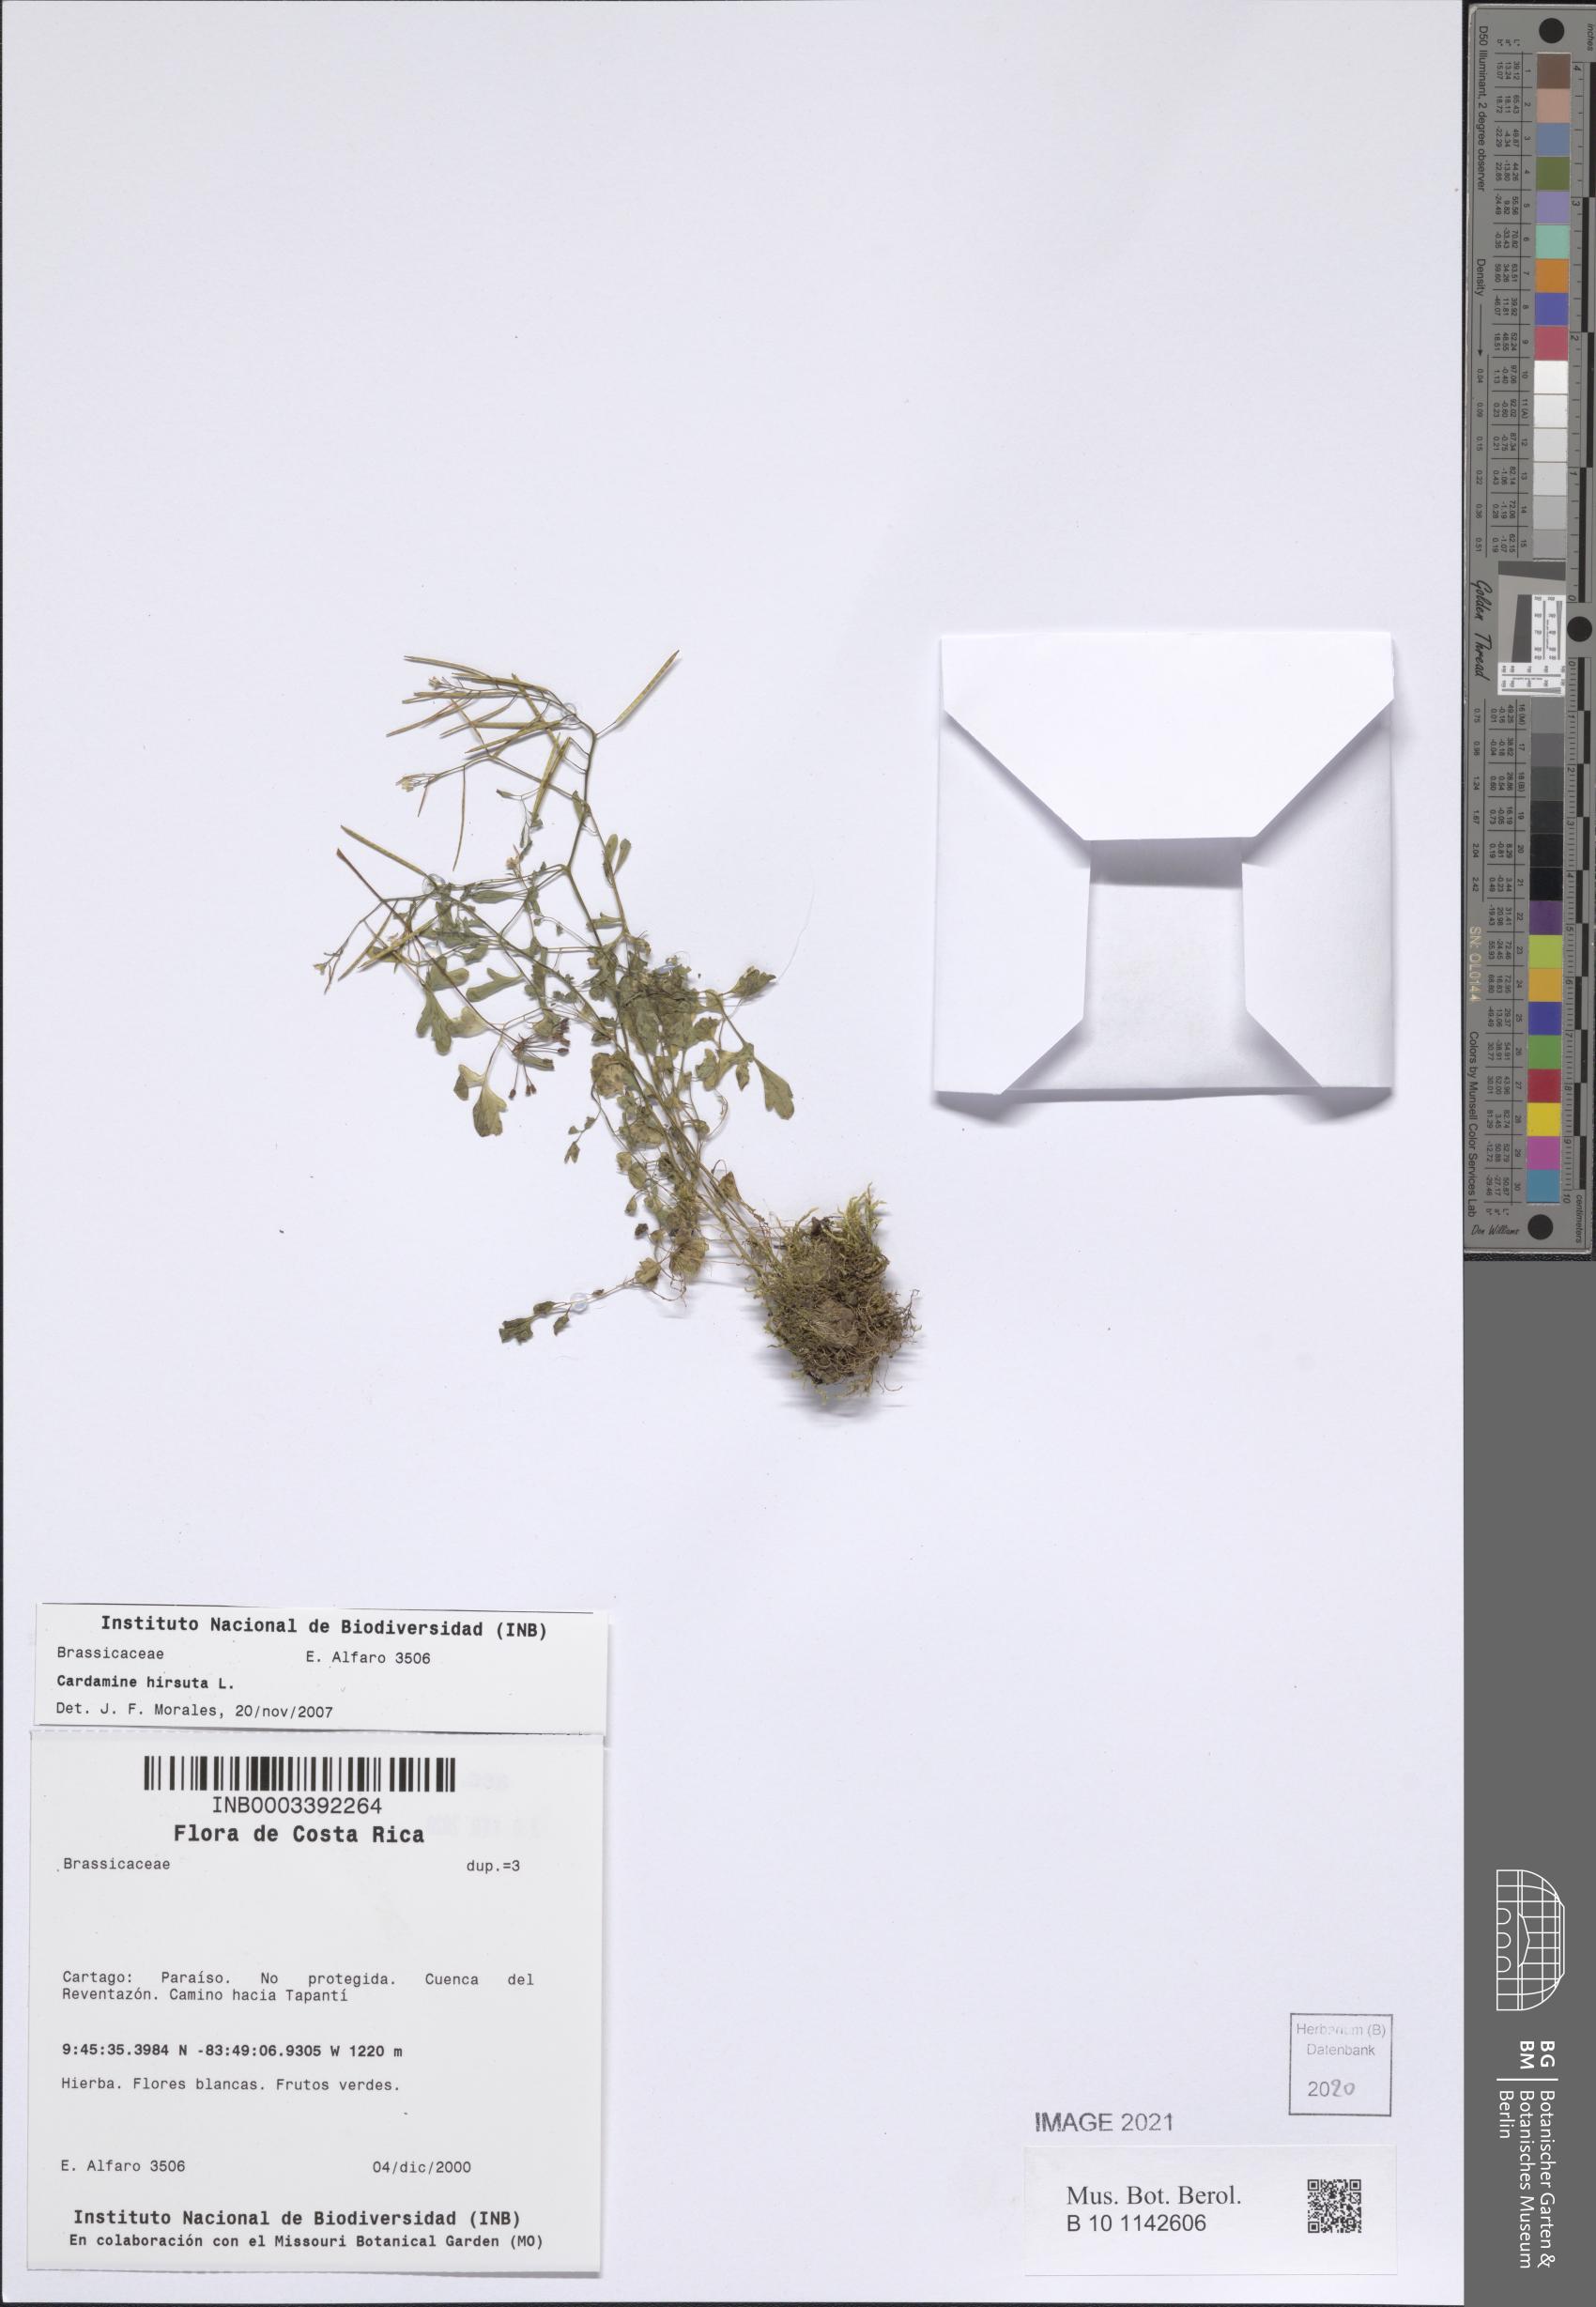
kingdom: Plantae
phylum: Tracheophyta
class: Magnoliopsida
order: Brassicales
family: Brassicaceae
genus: Cardamine
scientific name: Cardamine hirsuta
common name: Hairy bittercress
